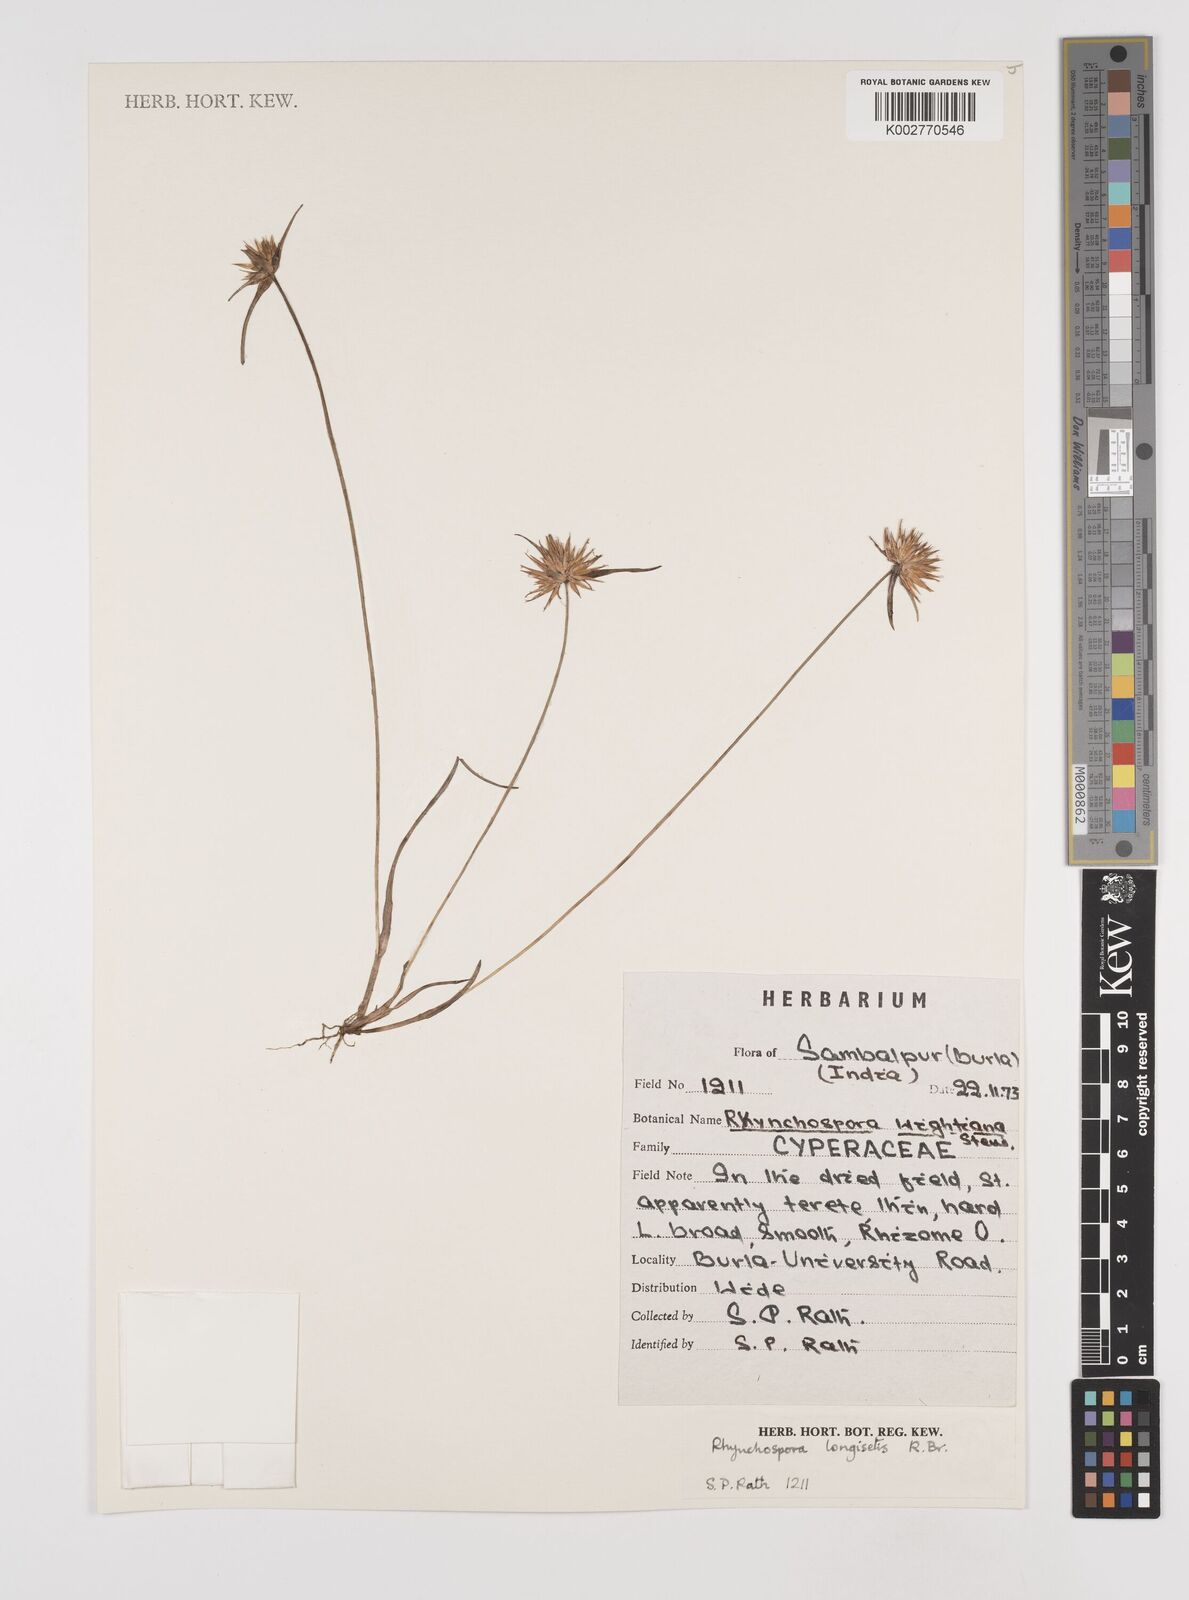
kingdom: Plantae
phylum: Tracheophyta
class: Liliopsida
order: Poales
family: Cyperaceae
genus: Rhynchospora
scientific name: Rhynchospora longisetis
